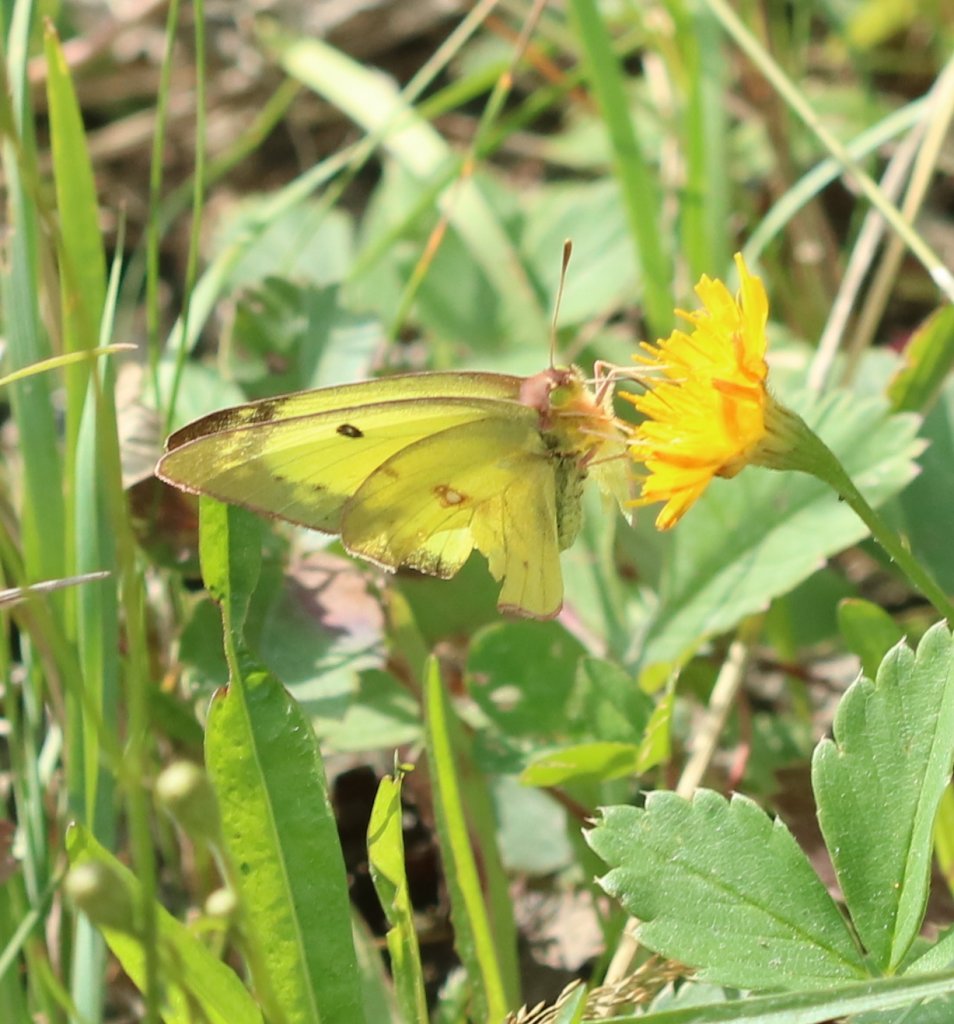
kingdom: Animalia
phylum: Arthropoda
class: Insecta
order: Lepidoptera
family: Pieridae
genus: Colias
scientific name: Colias philodice
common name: Clouded Sulphur
